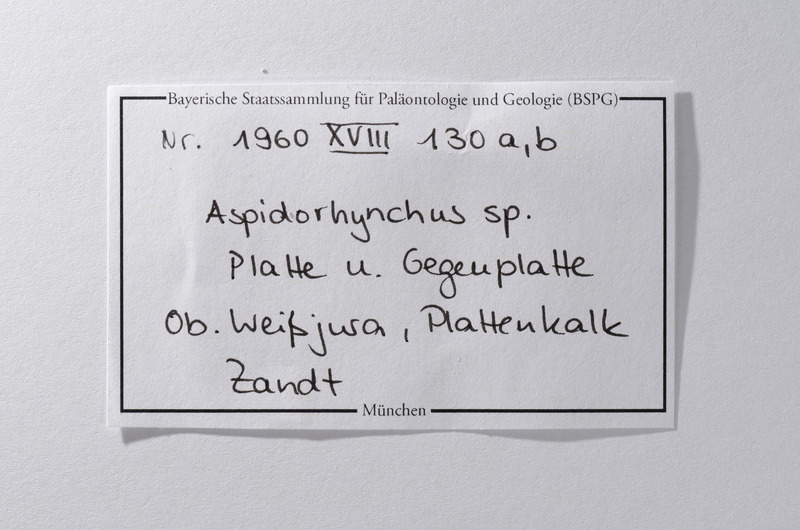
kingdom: Animalia
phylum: Chordata
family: Aspidorhynchidae
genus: Aspidorhynchus
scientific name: Aspidorhynchus
